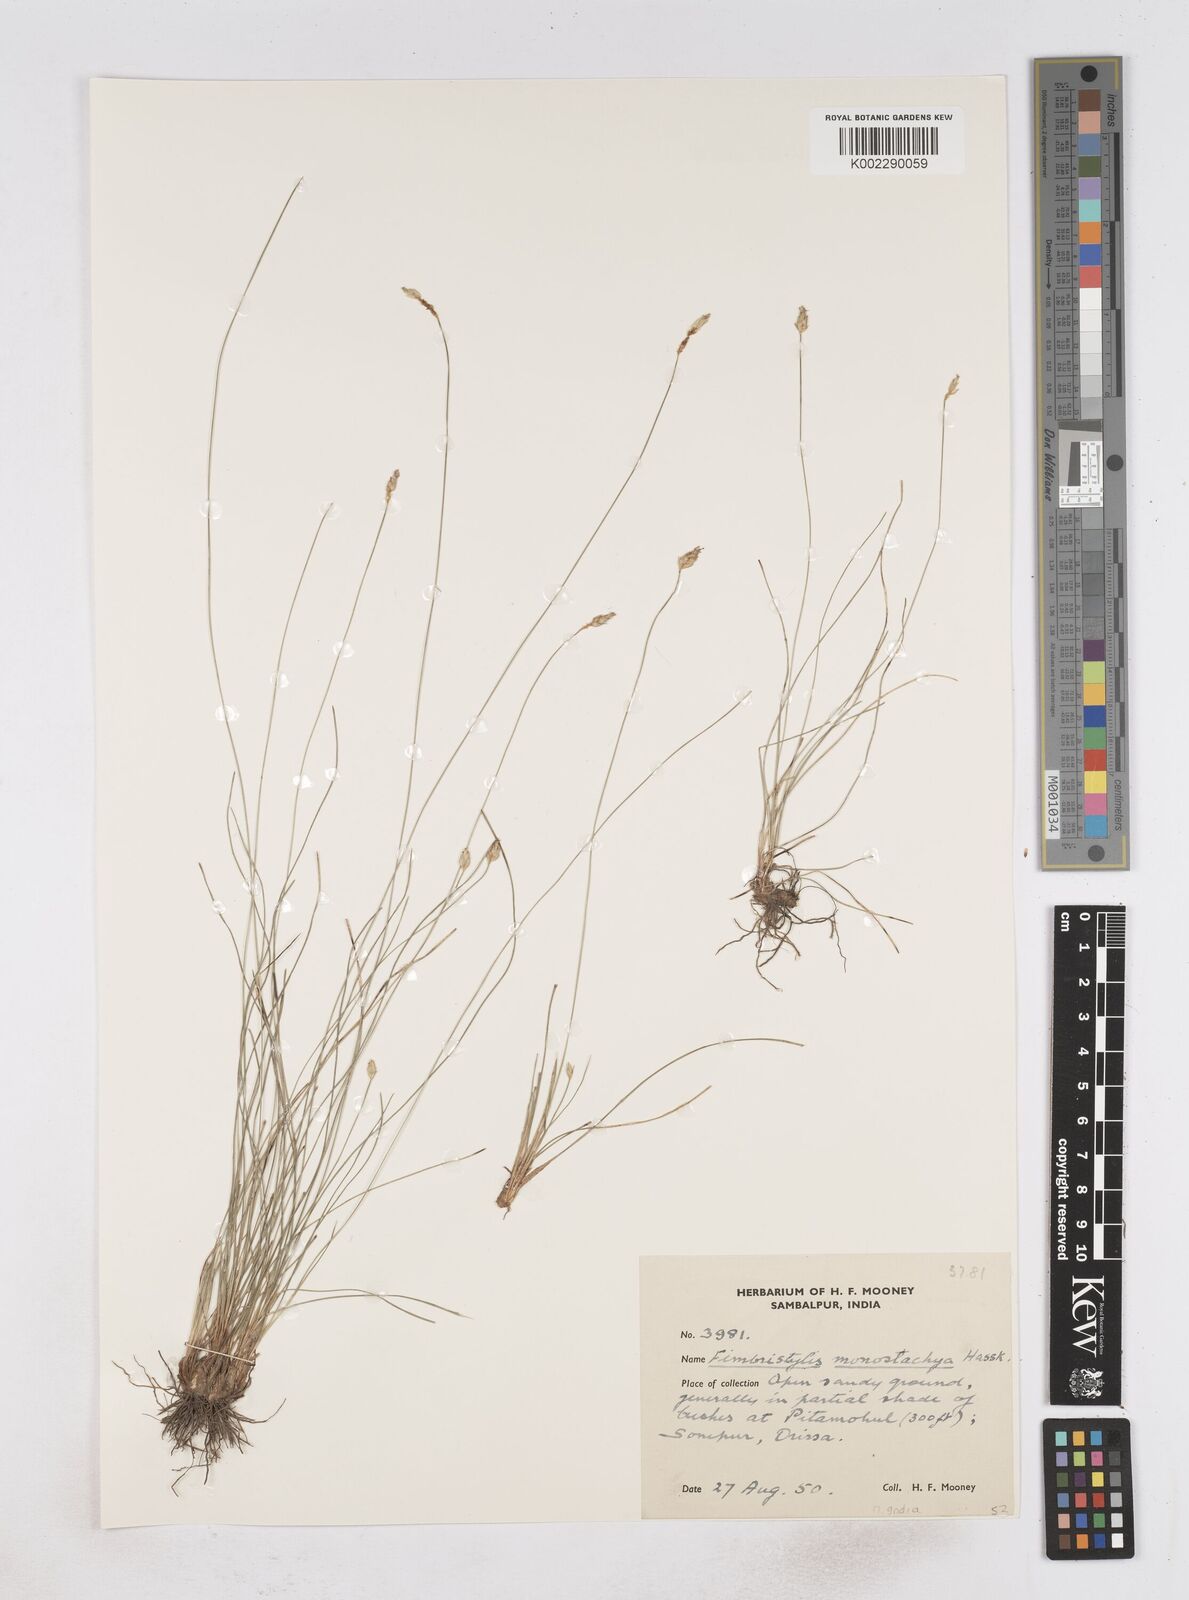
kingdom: Plantae
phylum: Tracheophyta
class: Liliopsida
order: Poales
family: Cyperaceae
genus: Abildgaardia
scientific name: Abildgaardia ovata
